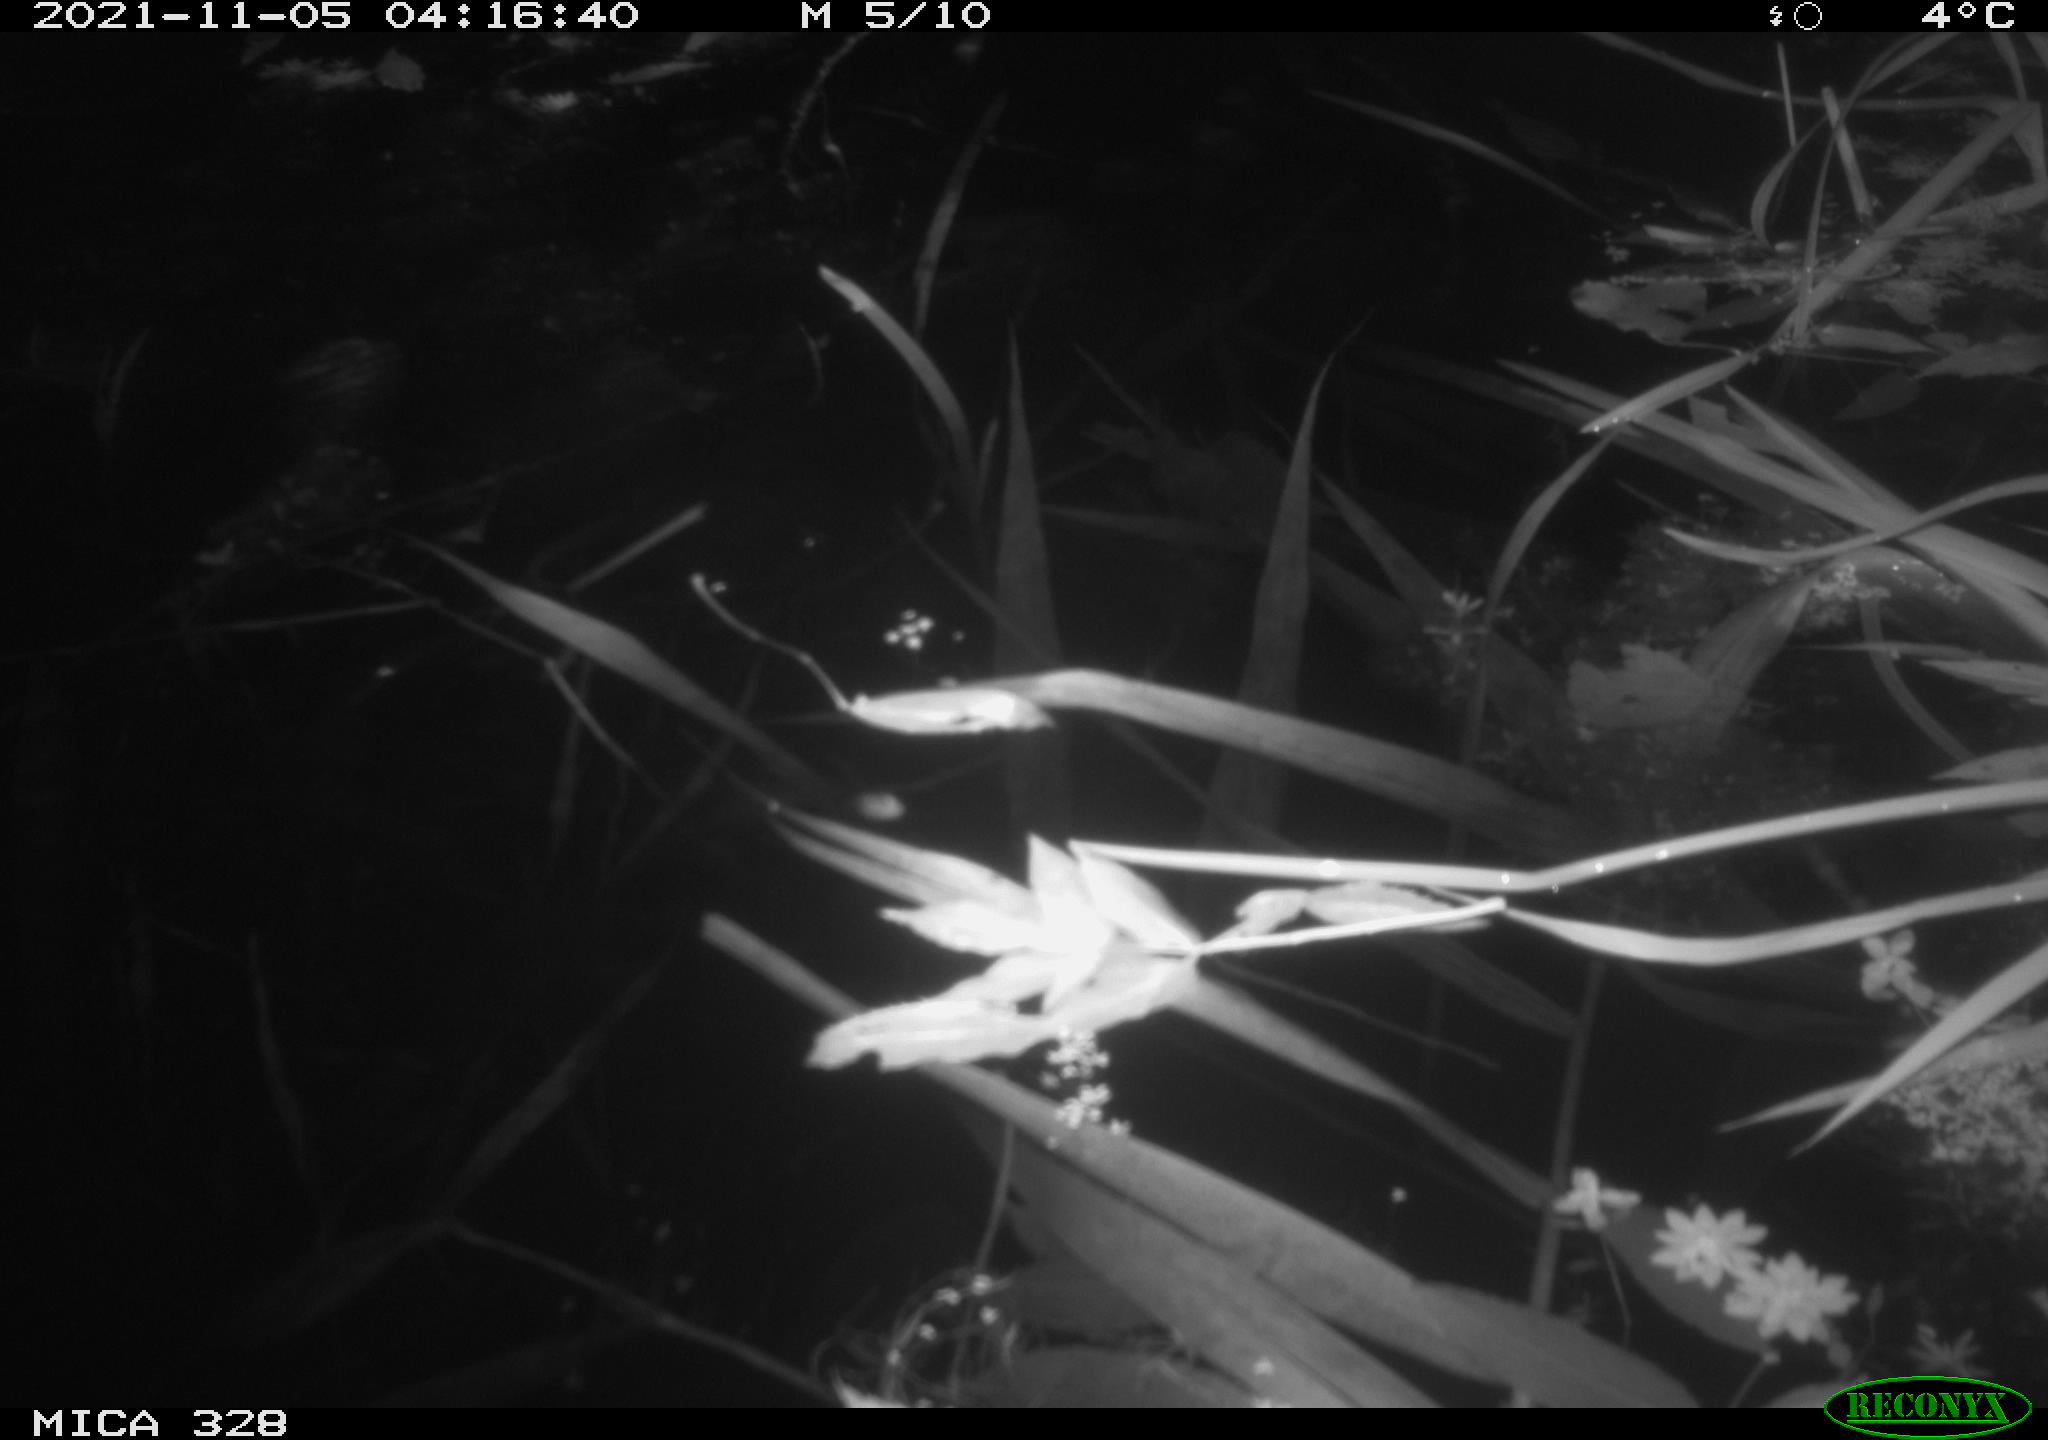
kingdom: Animalia
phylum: Chordata
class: Mammalia
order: Rodentia
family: Cricetidae
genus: Ondatra
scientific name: Ondatra zibethicus
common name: Muskrat
